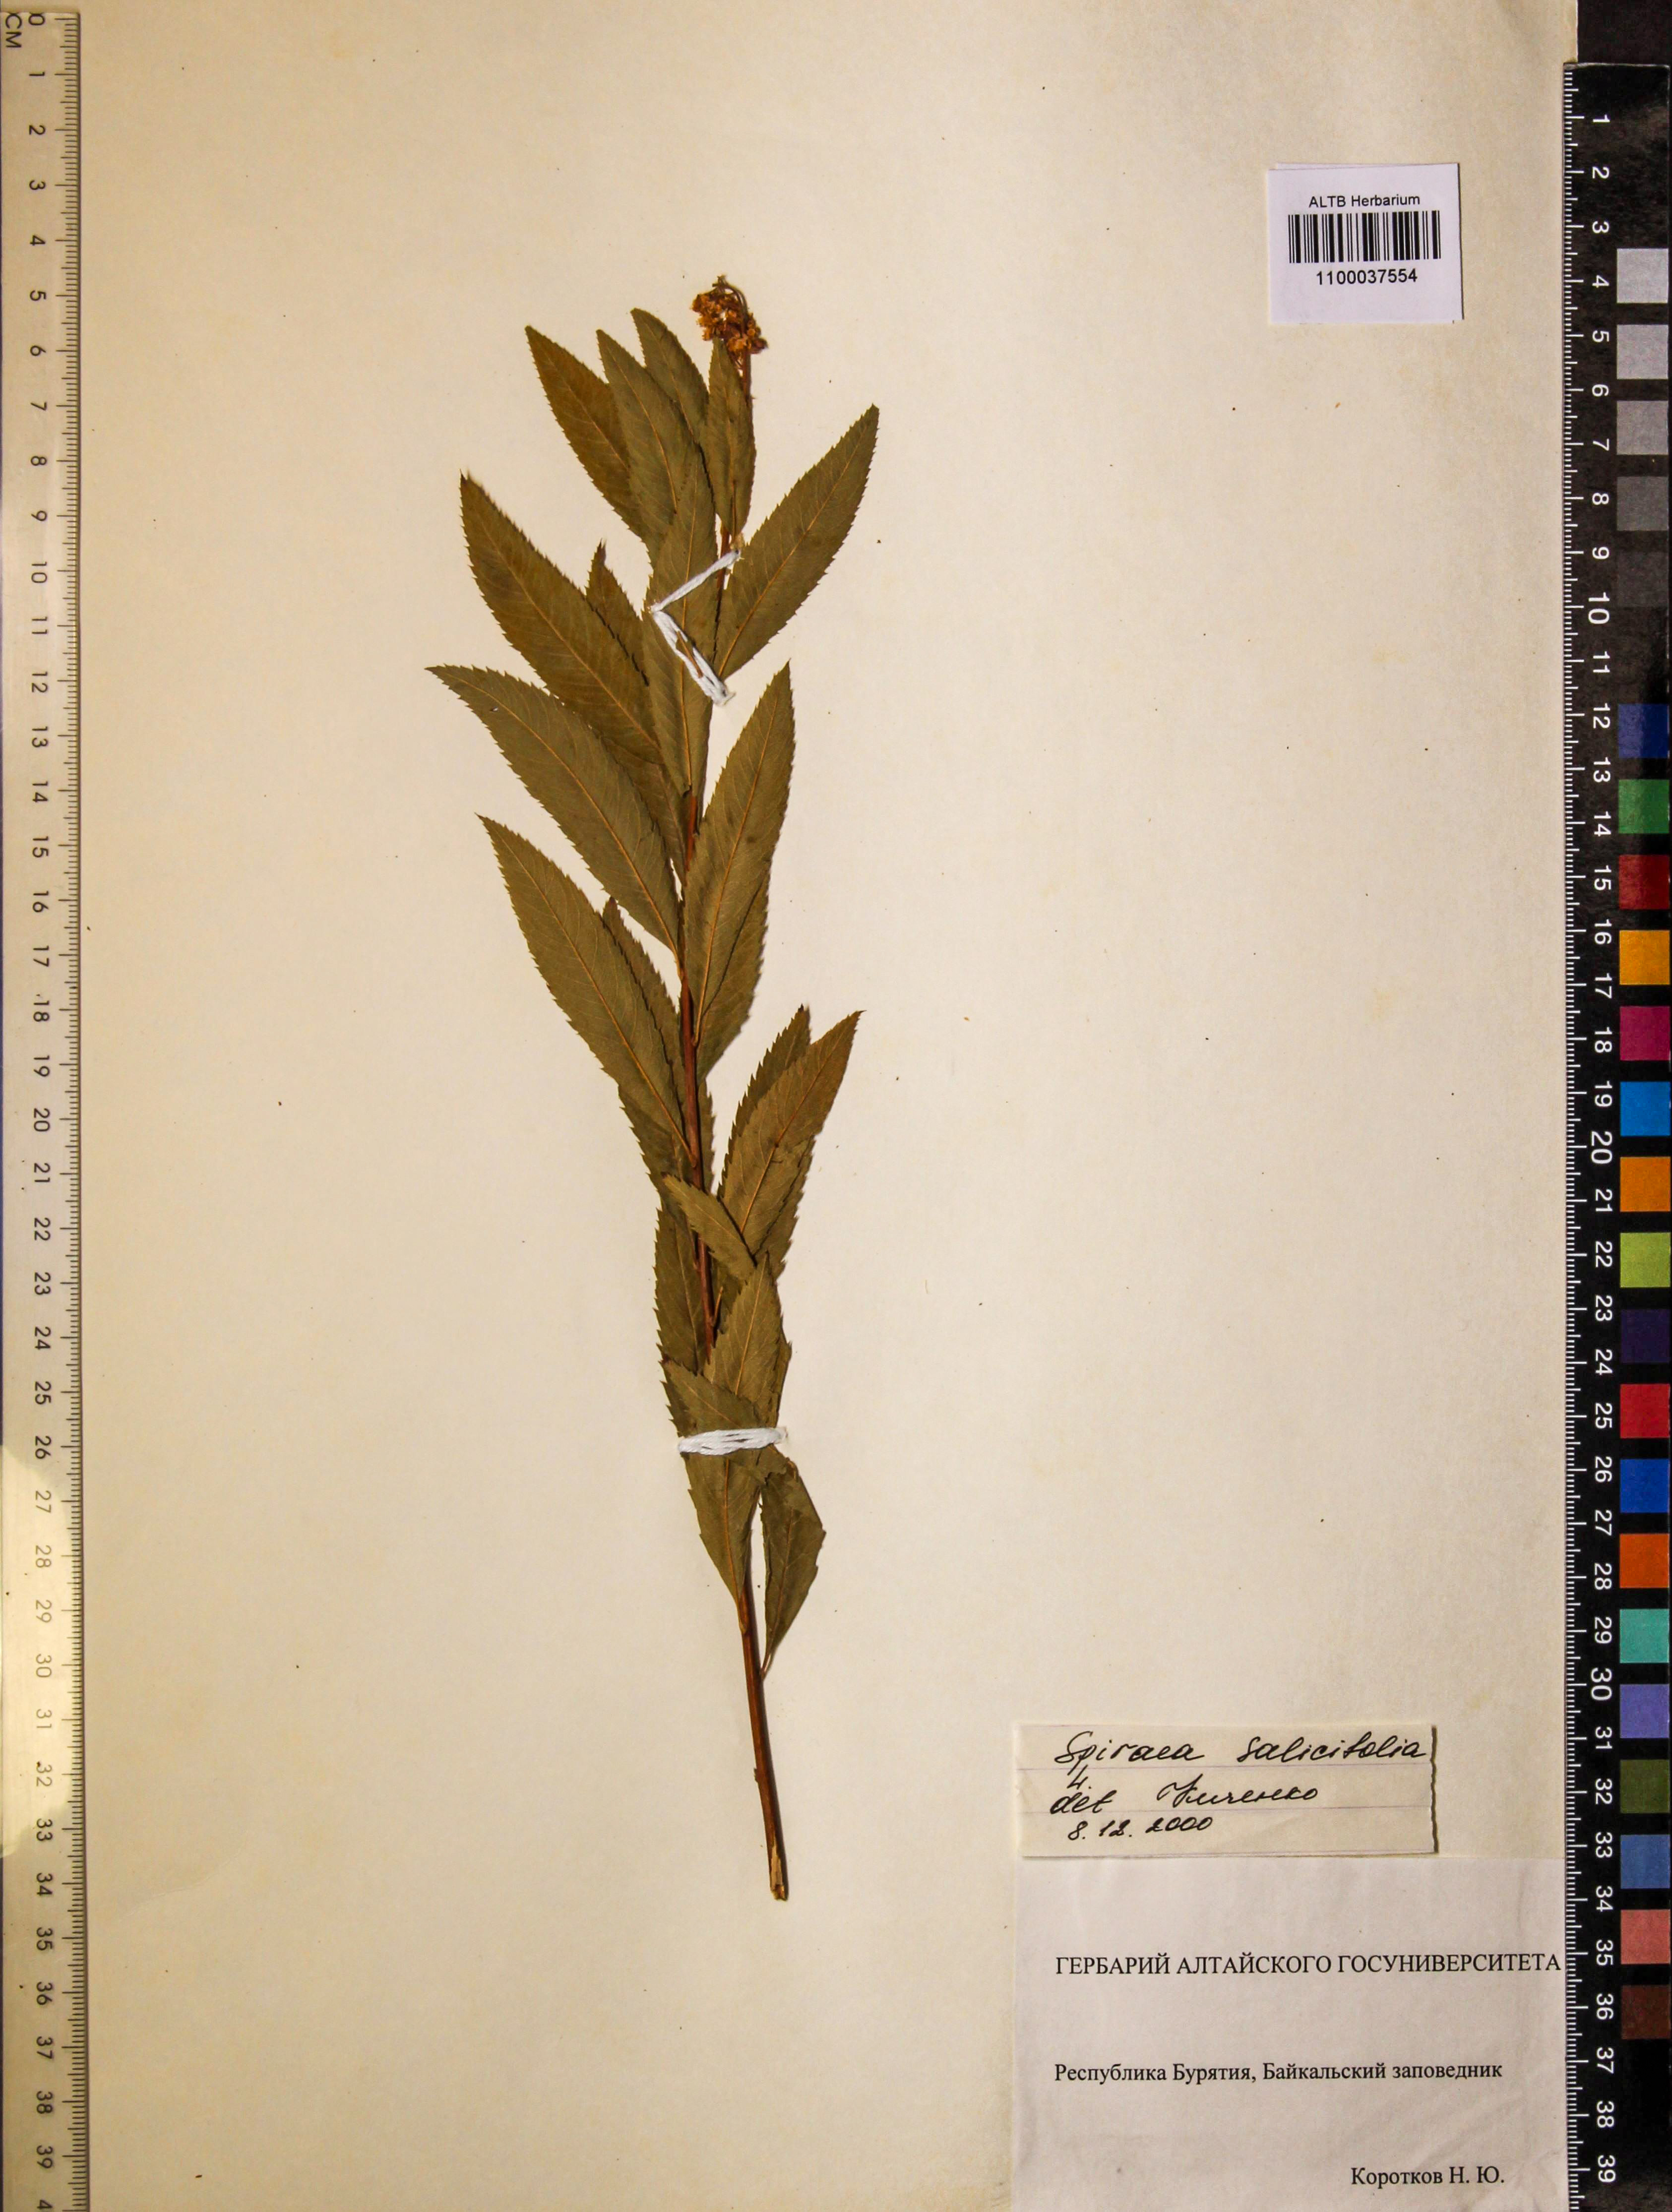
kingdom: Plantae
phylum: Tracheophyta
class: Magnoliopsida
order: Rosales
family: Rosaceae
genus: Spiraea
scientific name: Spiraea salicifolia
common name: Bridewort
